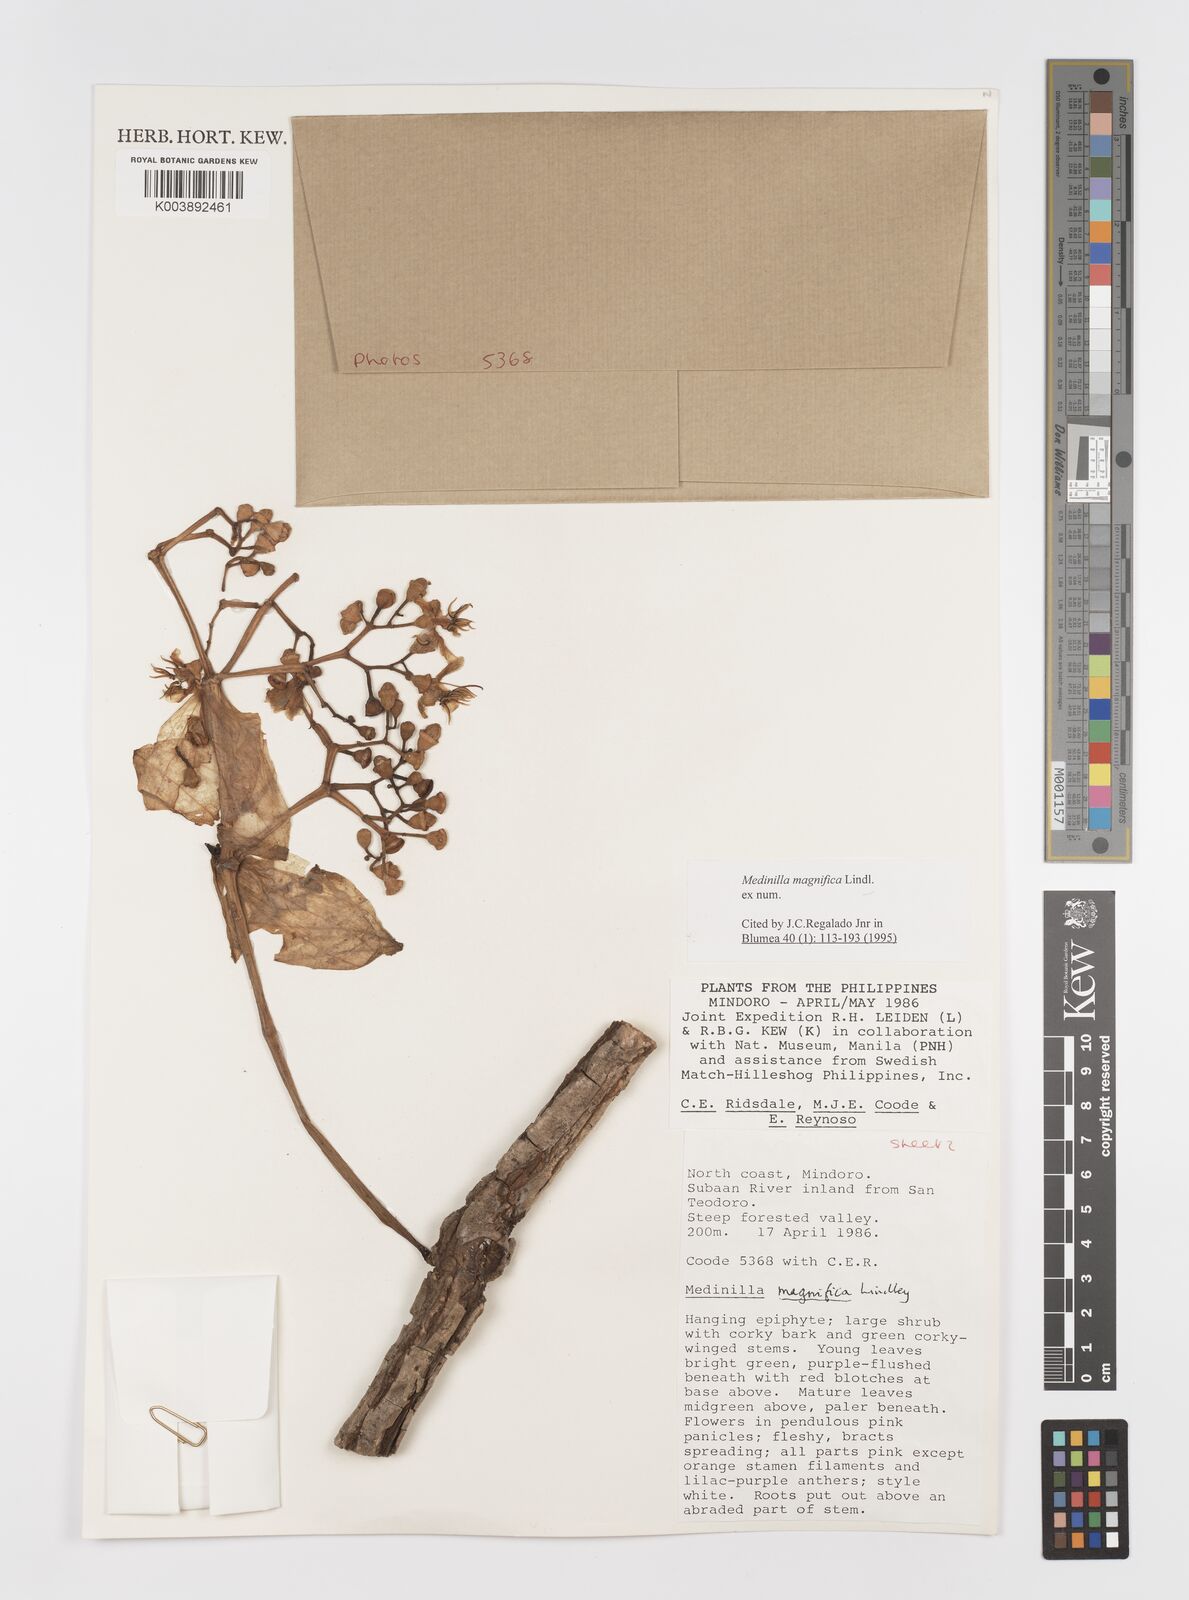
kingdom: Plantae
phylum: Tracheophyta
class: Magnoliopsida
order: Myrtales
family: Melastomataceae
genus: Medinilla
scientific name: Medinilla magnifica
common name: Showy medinilla
